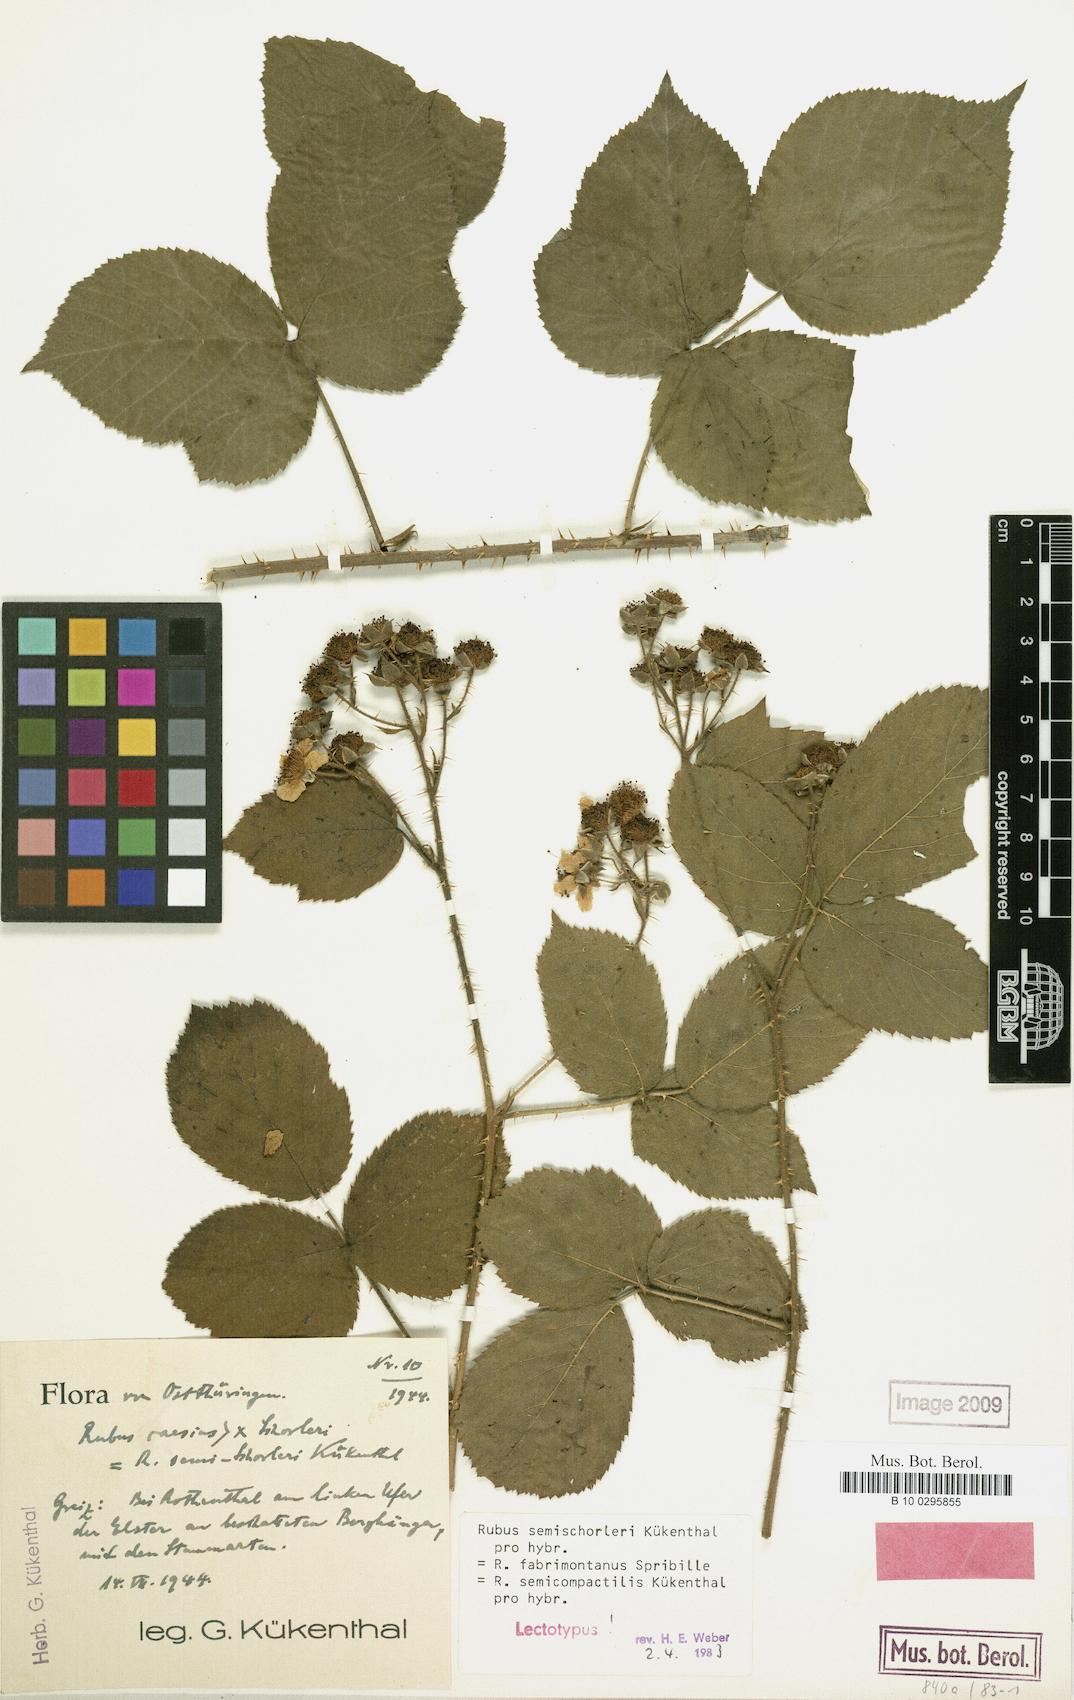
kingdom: Plantae
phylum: Tracheophyta
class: Magnoliopsida
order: Rosales
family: Rosaceae
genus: Rubus
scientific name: Rubus semischorleri
